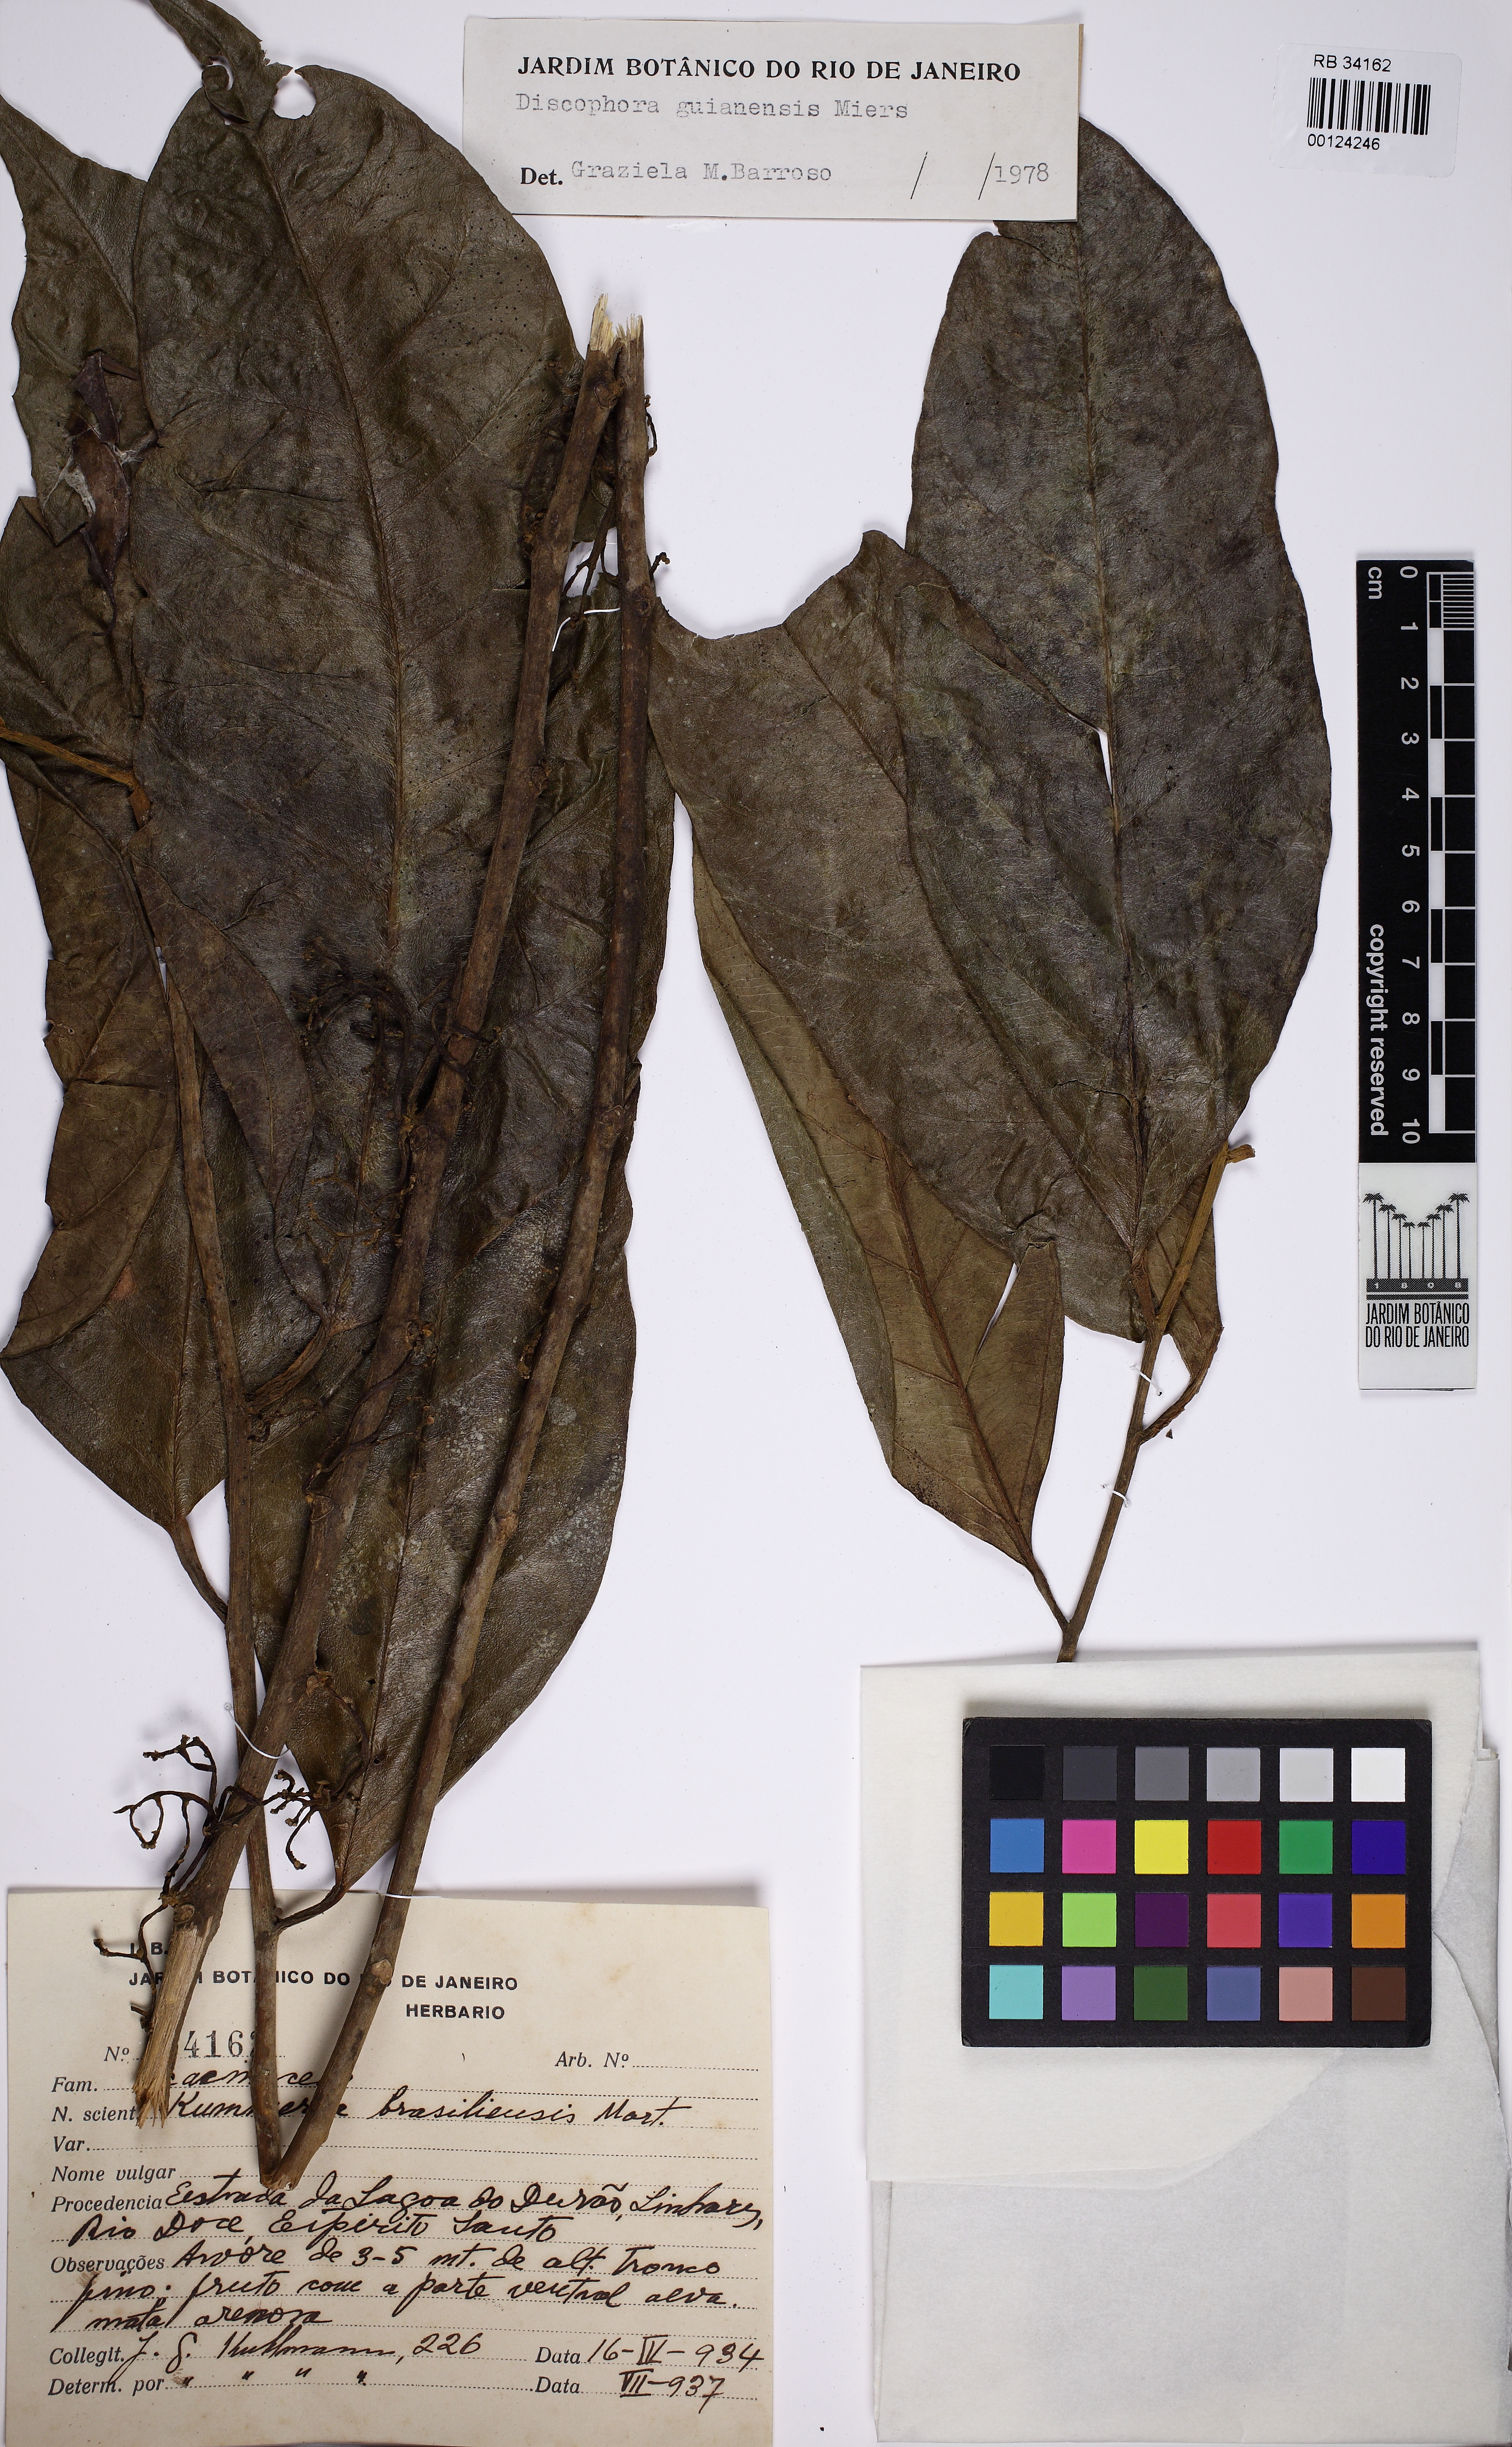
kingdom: Plantae
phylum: Tracheophyta
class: Magnoliopsida
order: Cardiopteridales
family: Stemonuraceae
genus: Discophora
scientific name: Discophora guianensis
